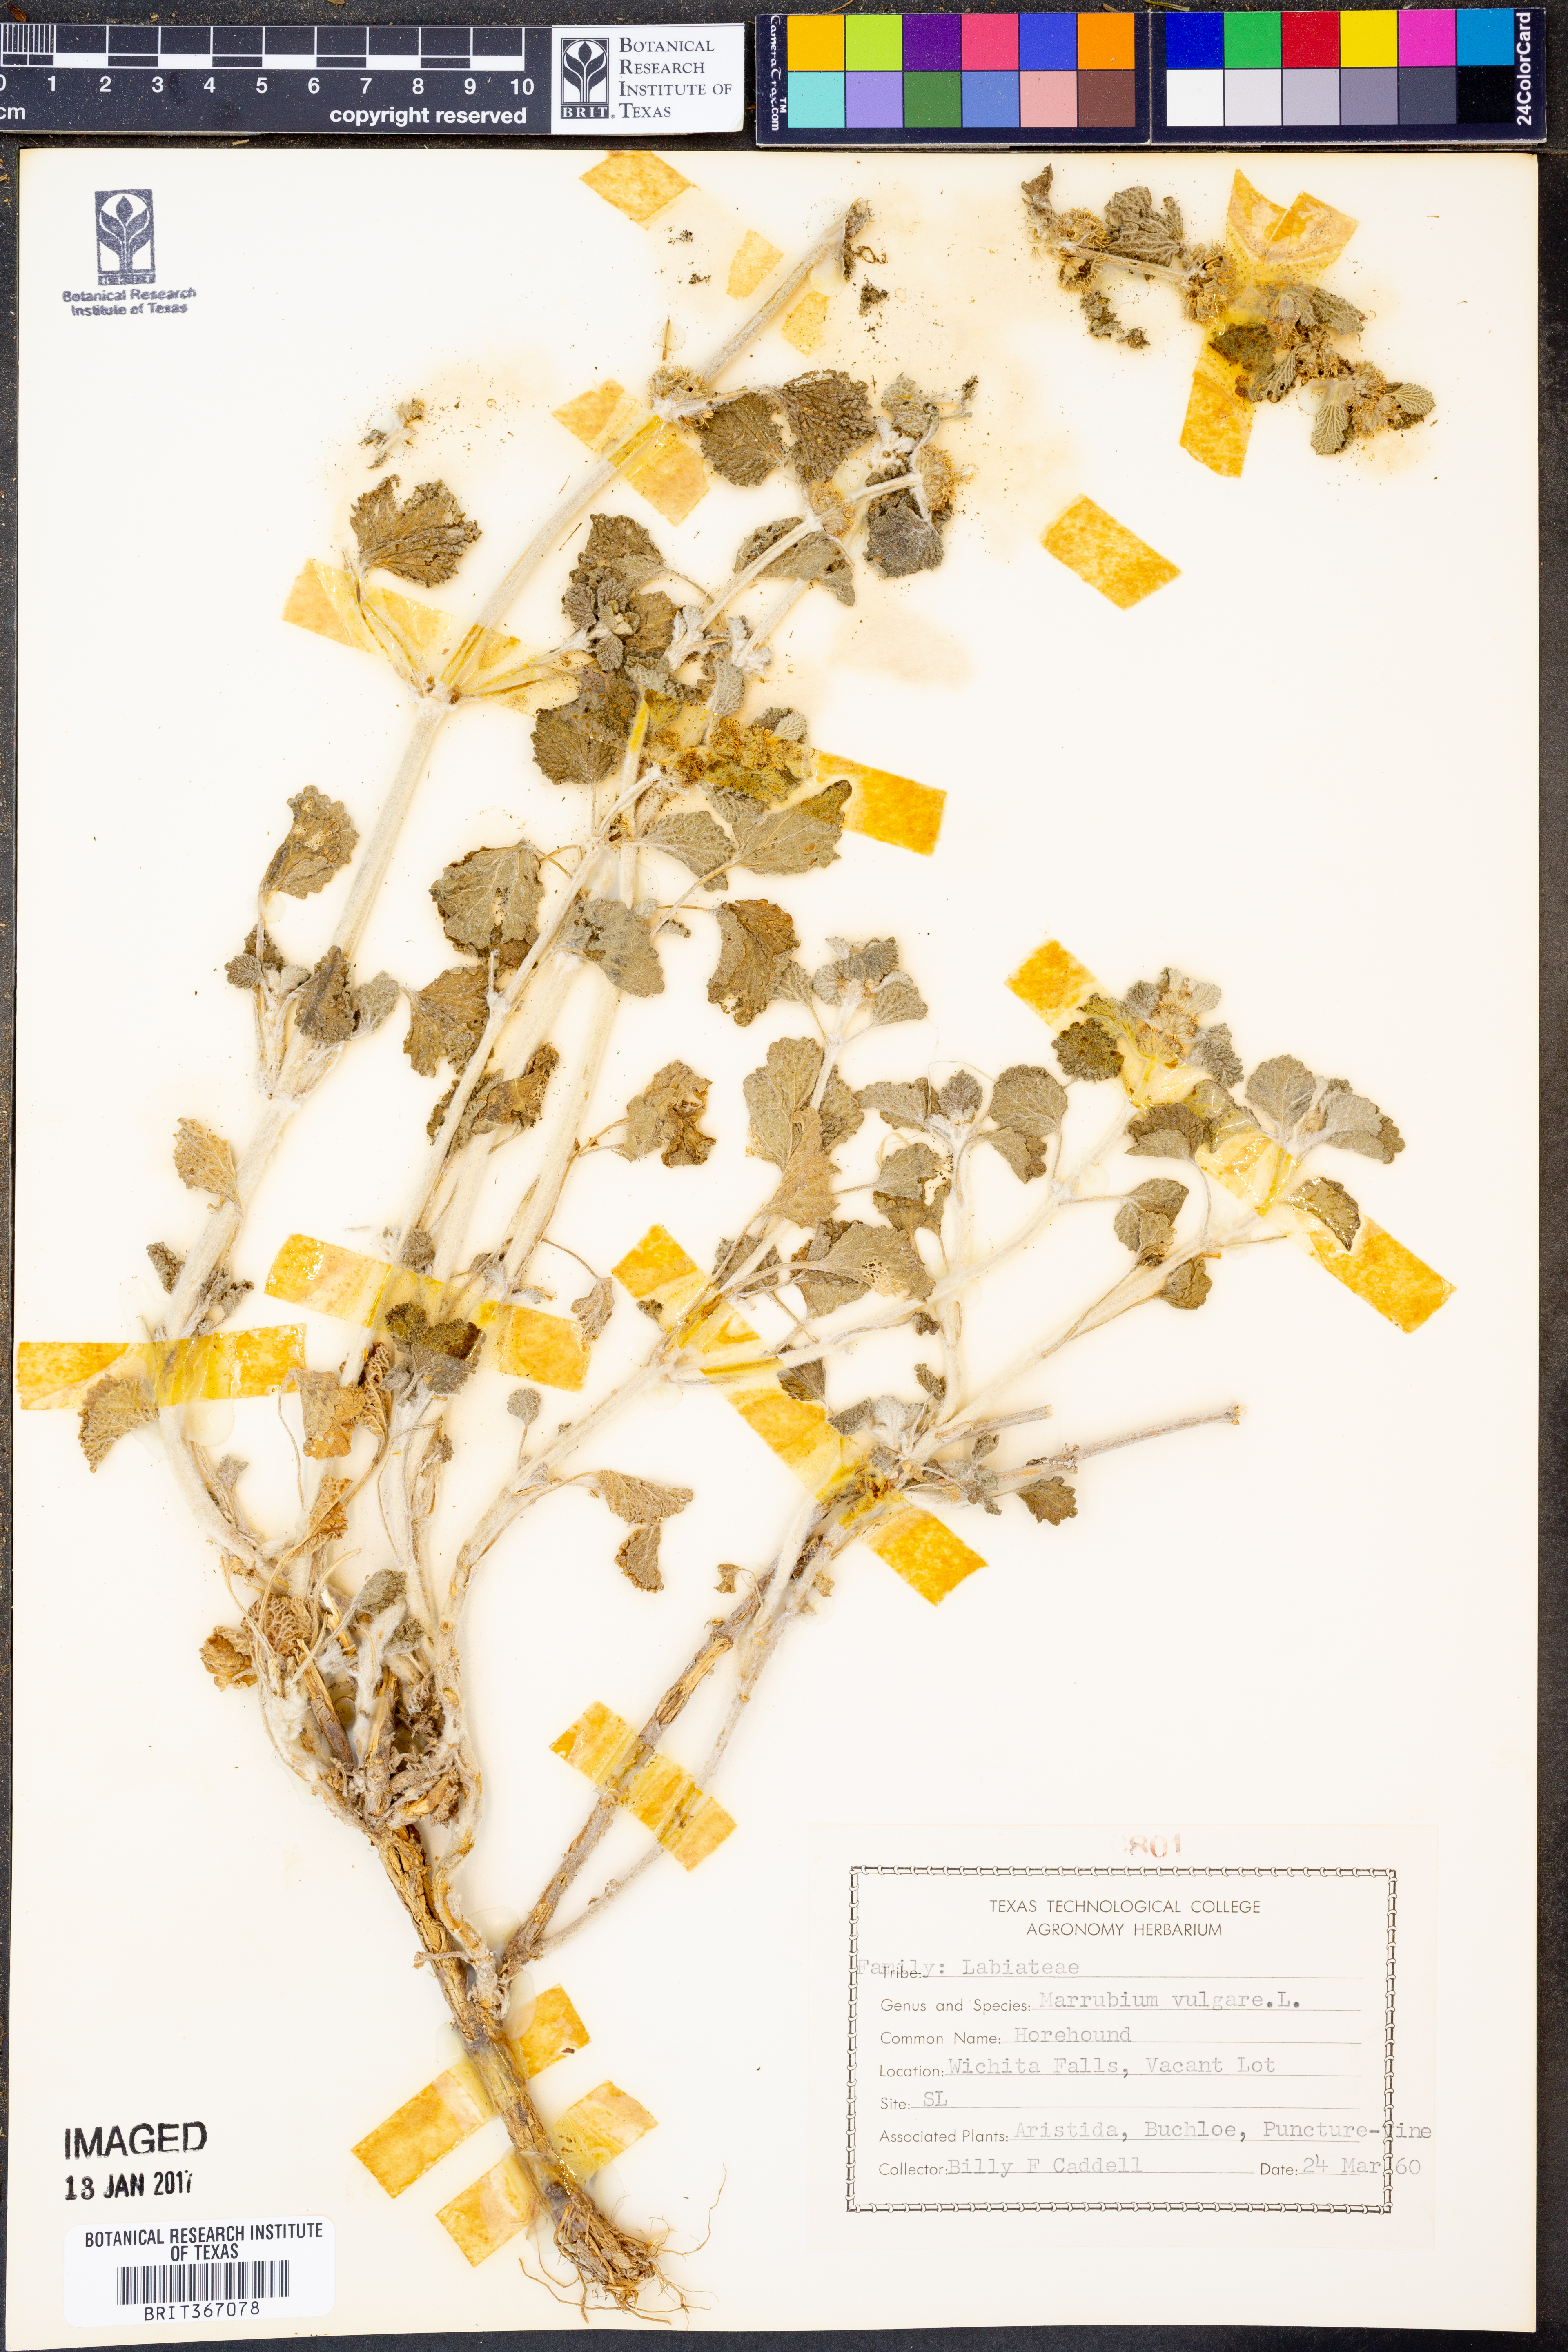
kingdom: Plantae
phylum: Tracheophyta
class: Magnoliopsida
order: Lamiales
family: Lamiaceae
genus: Marrubium
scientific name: Marrubium vulgare
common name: Horehound
